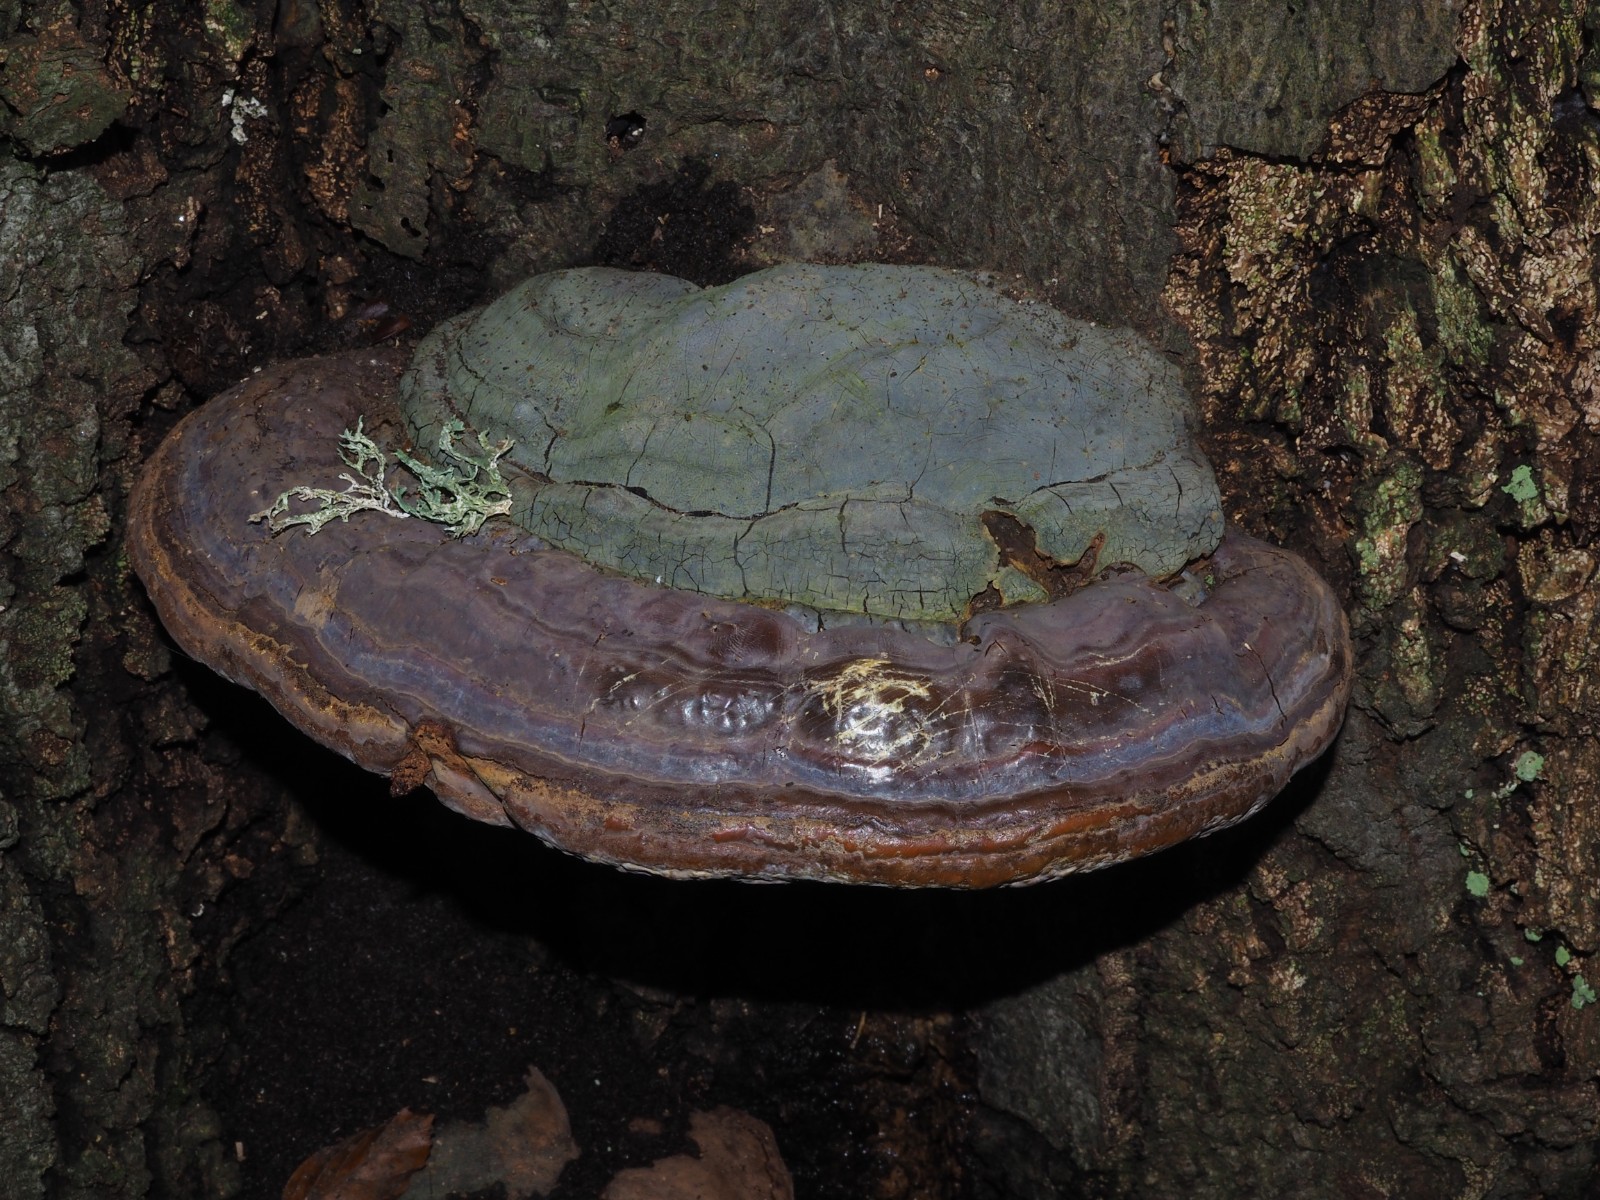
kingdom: Fungi
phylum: Basidiomycota
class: Agaricomycetes
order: Polyporales
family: Polyporaceae
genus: Ganoderma
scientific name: Ganoderma pfeifferi
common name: kobberrød lakporesvamp
